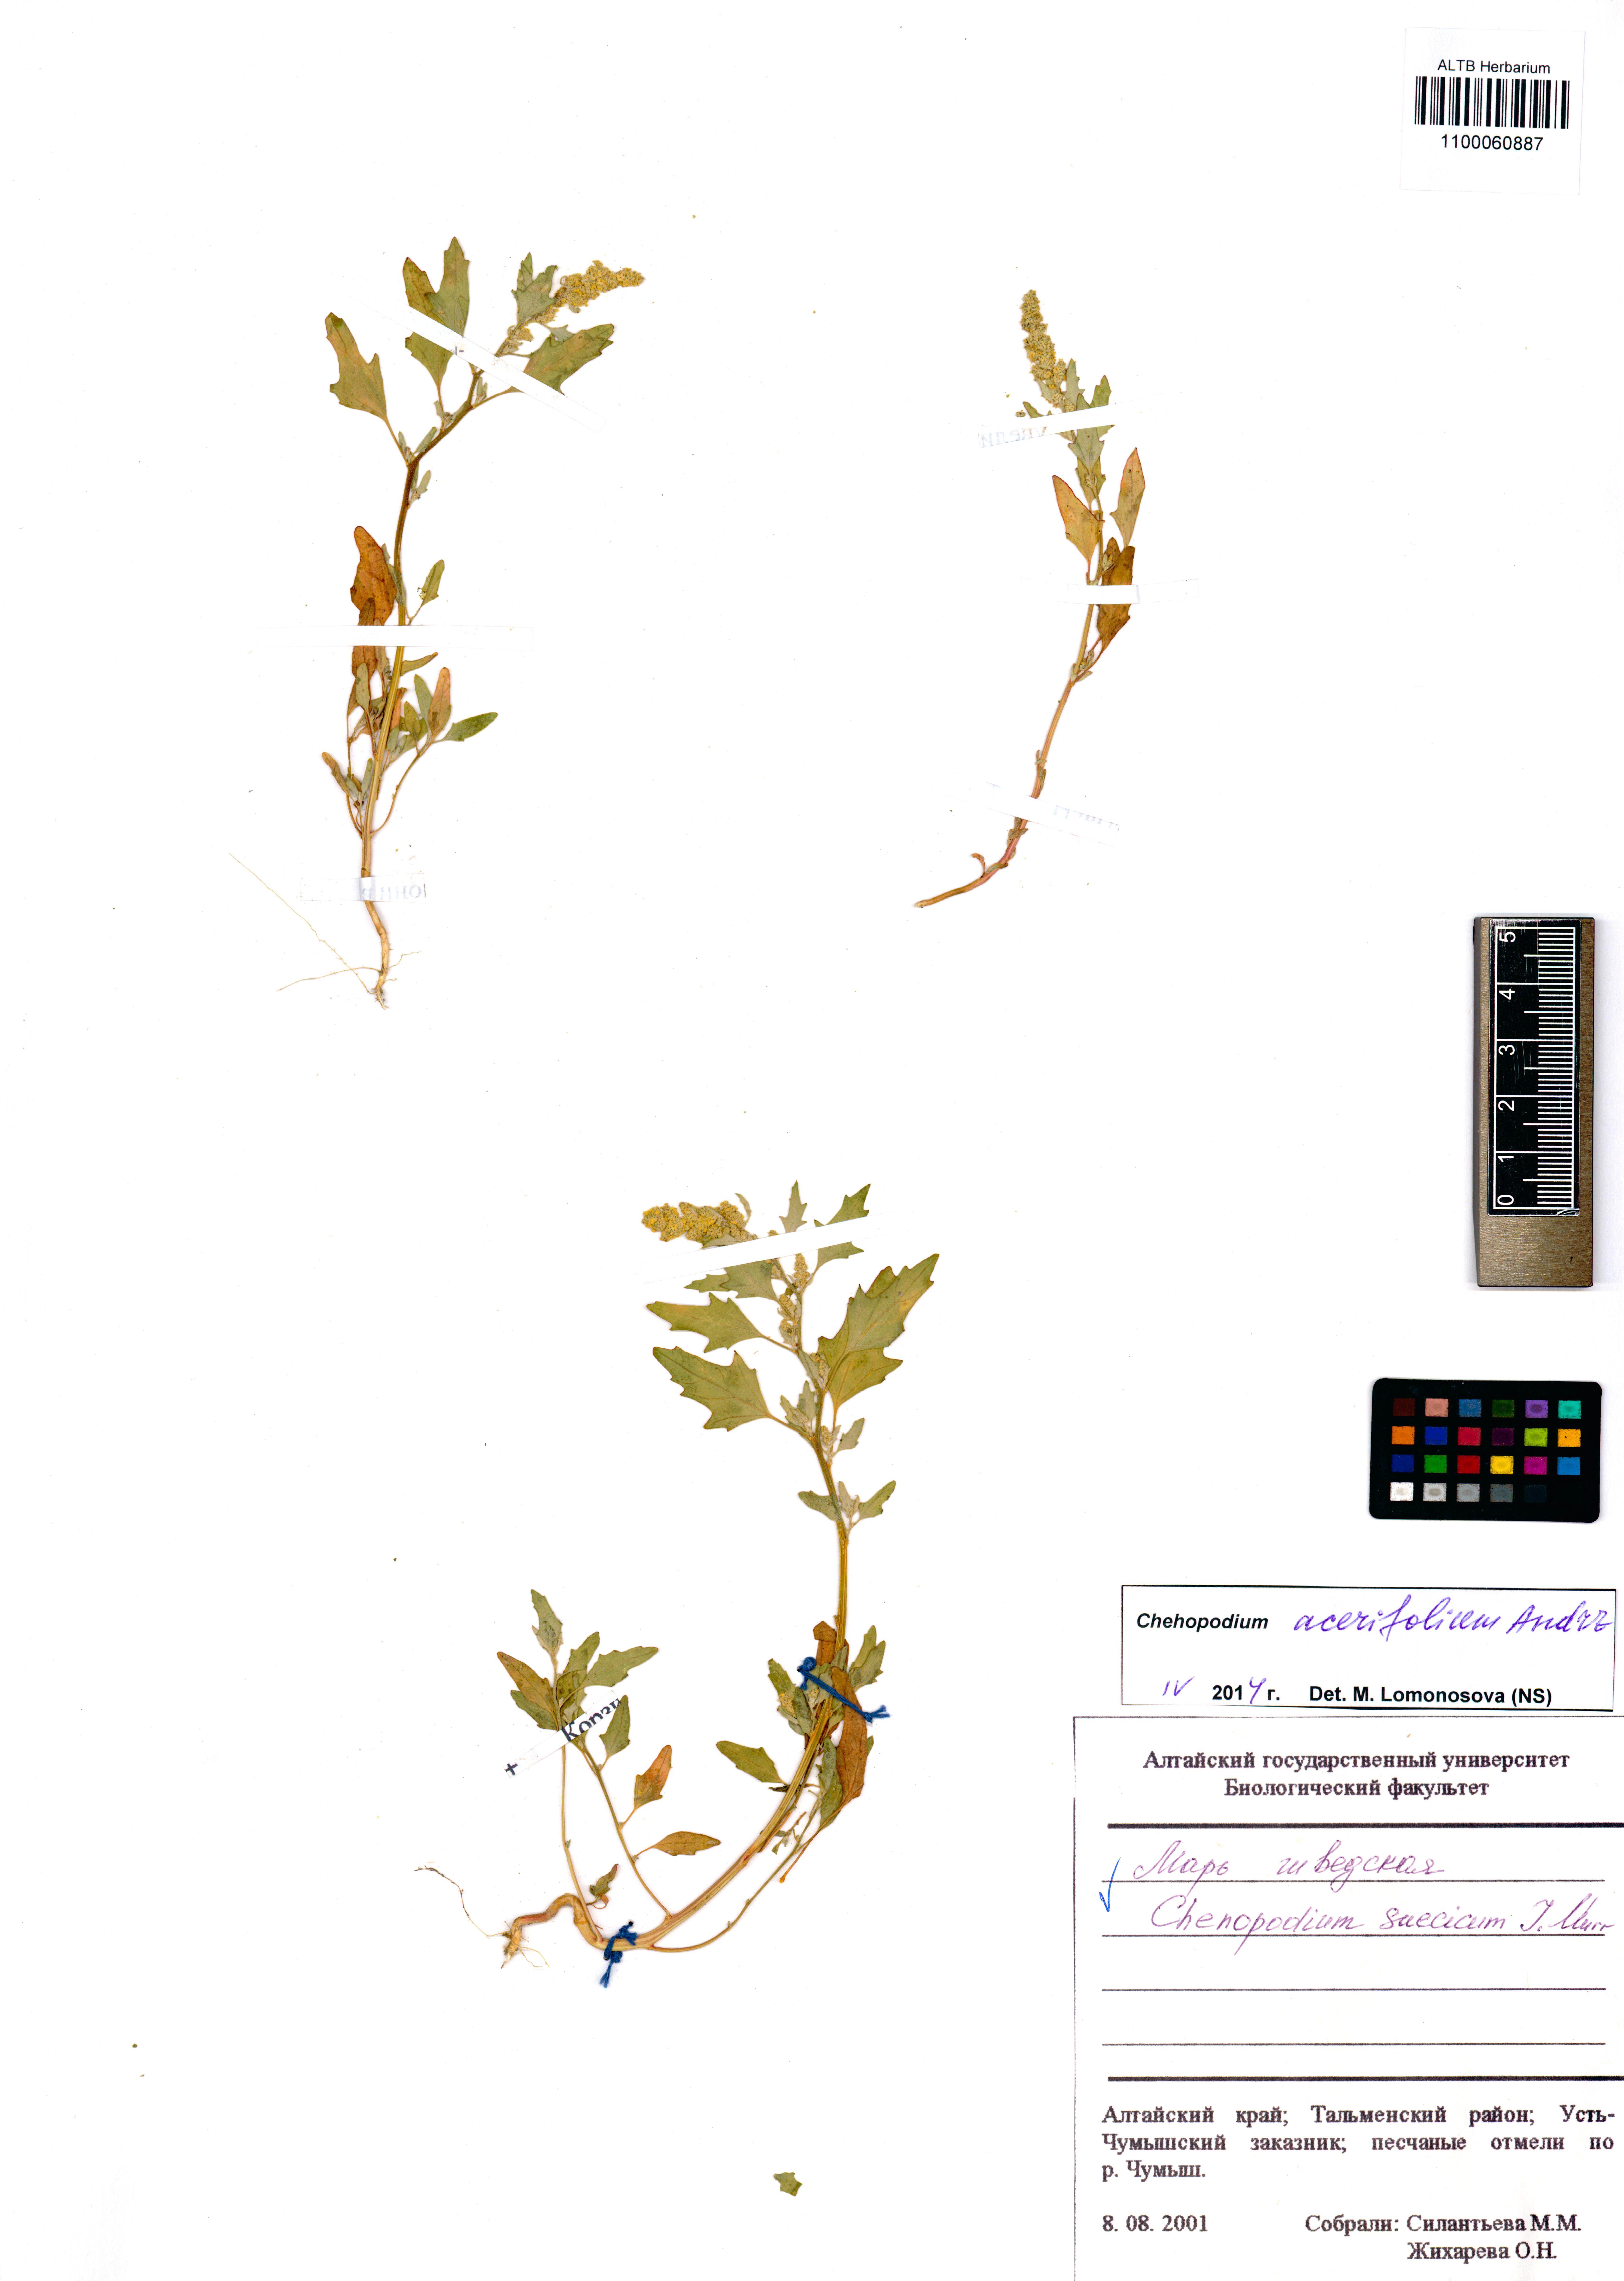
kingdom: Plantae
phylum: Tracheophyta
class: Magnoliopsida
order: Caryophyllales
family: Amaranthaceae
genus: Chenopodium
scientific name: Chenopodium suecicum
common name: Swedish goosefoot
